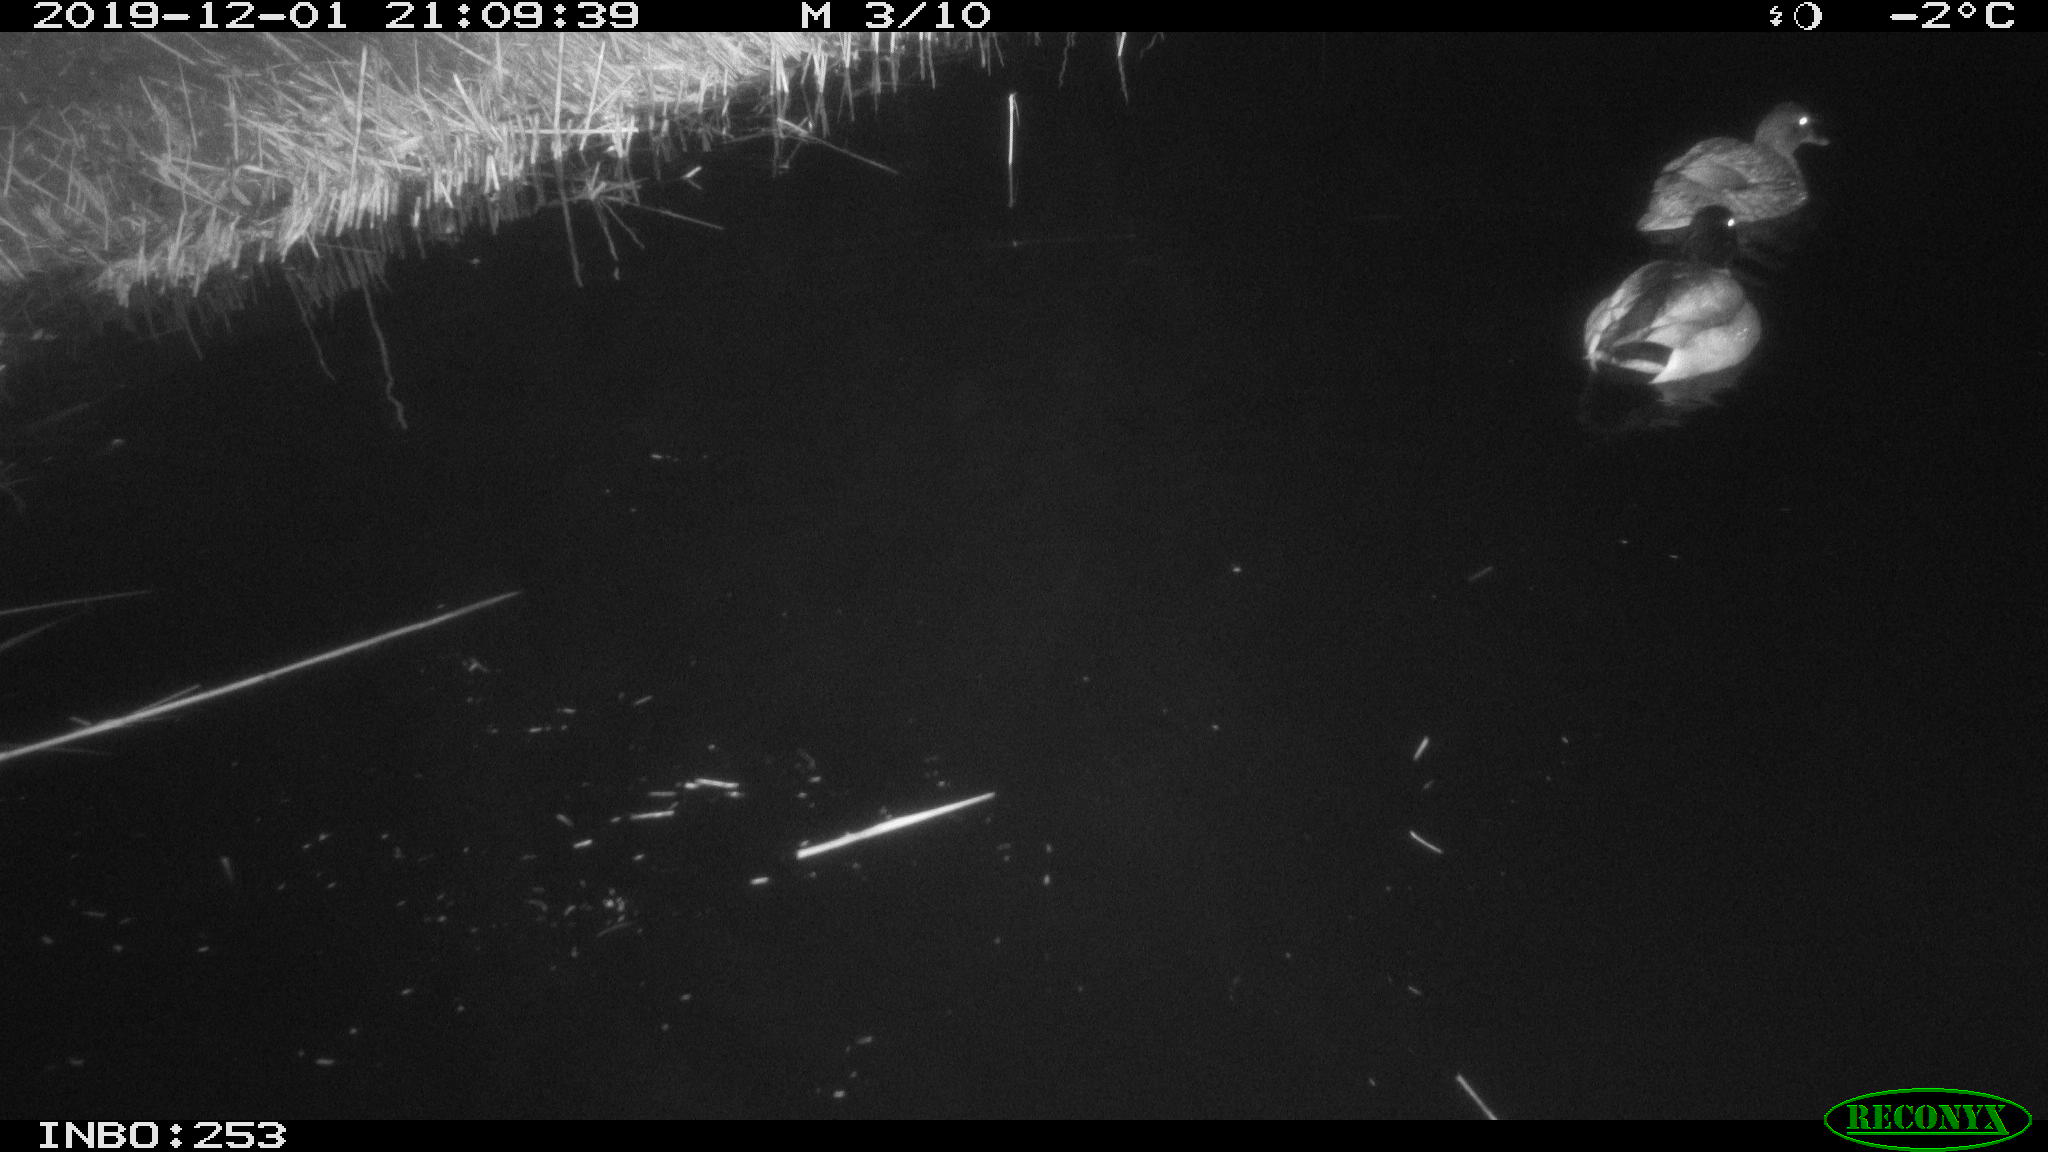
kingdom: Animalia
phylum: Chordata
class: Aves
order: Anseriformes
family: Anatidae
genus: Anas
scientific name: Anas platyrhynchos
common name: Mallard
